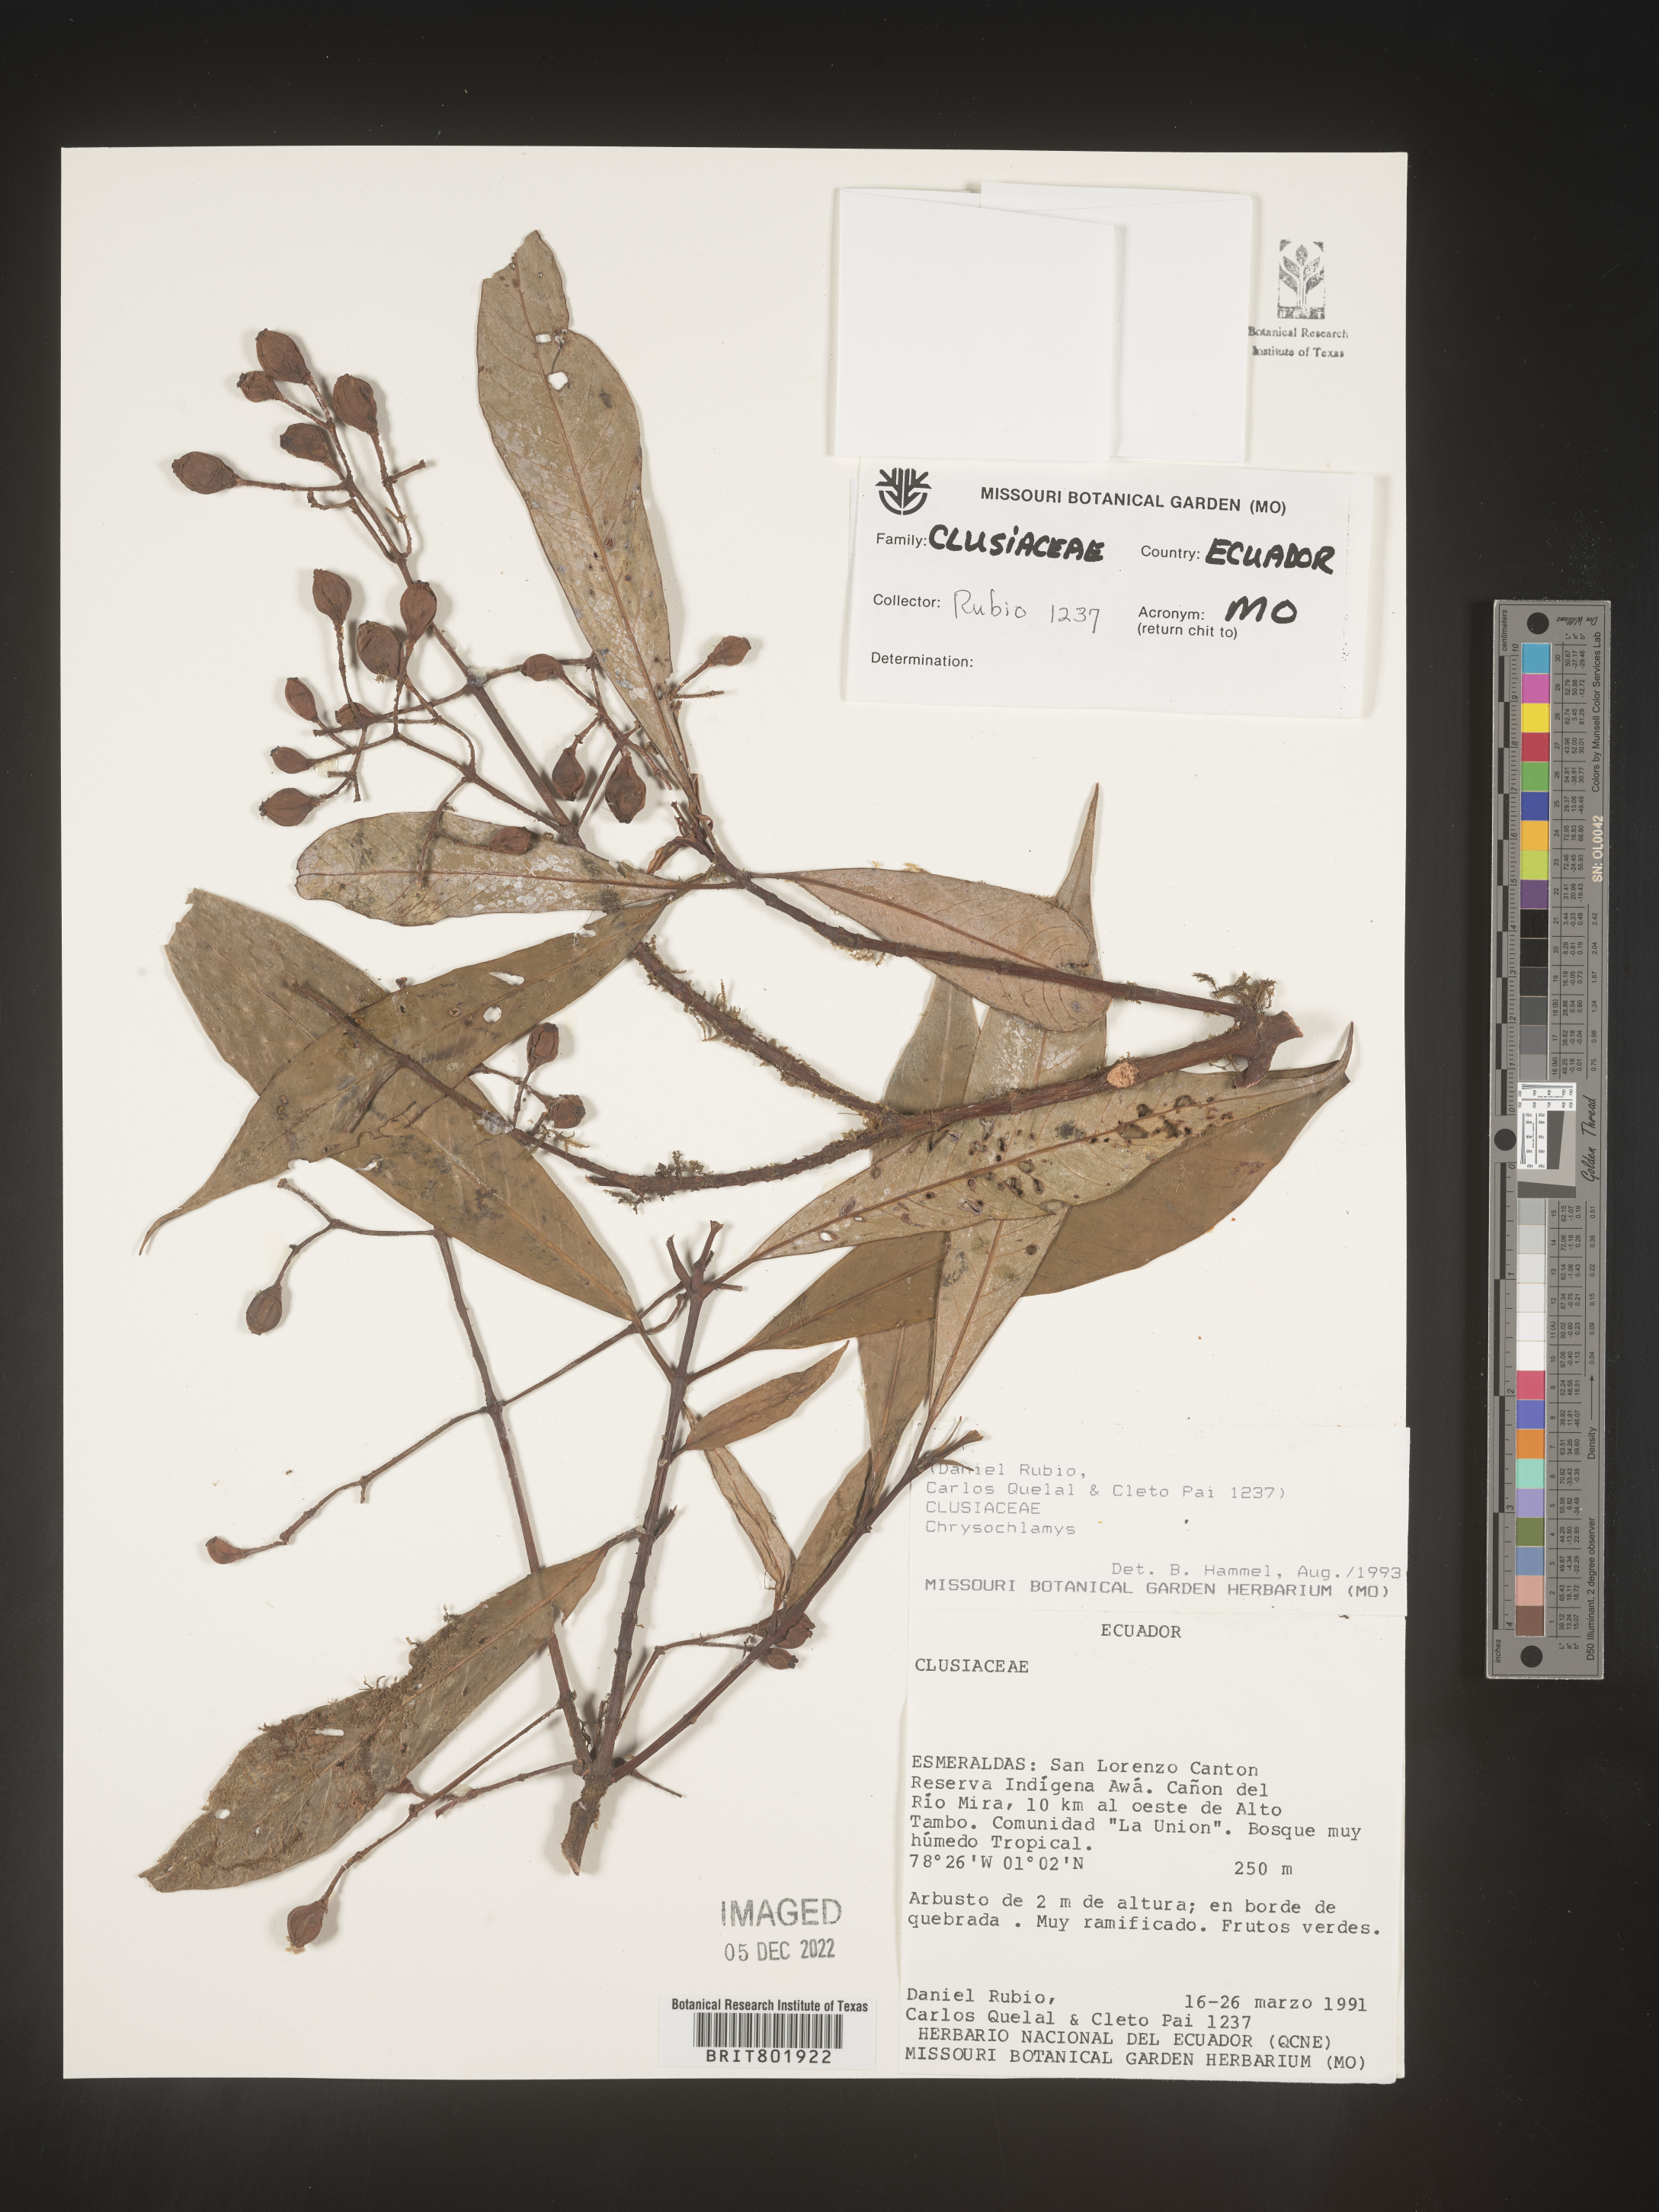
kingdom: Plantae
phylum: Tracheophyta
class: Magnoliopsida
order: Malpighiales
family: Clusiaceae
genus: Chrysochlamys
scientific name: Chrysochlamys
